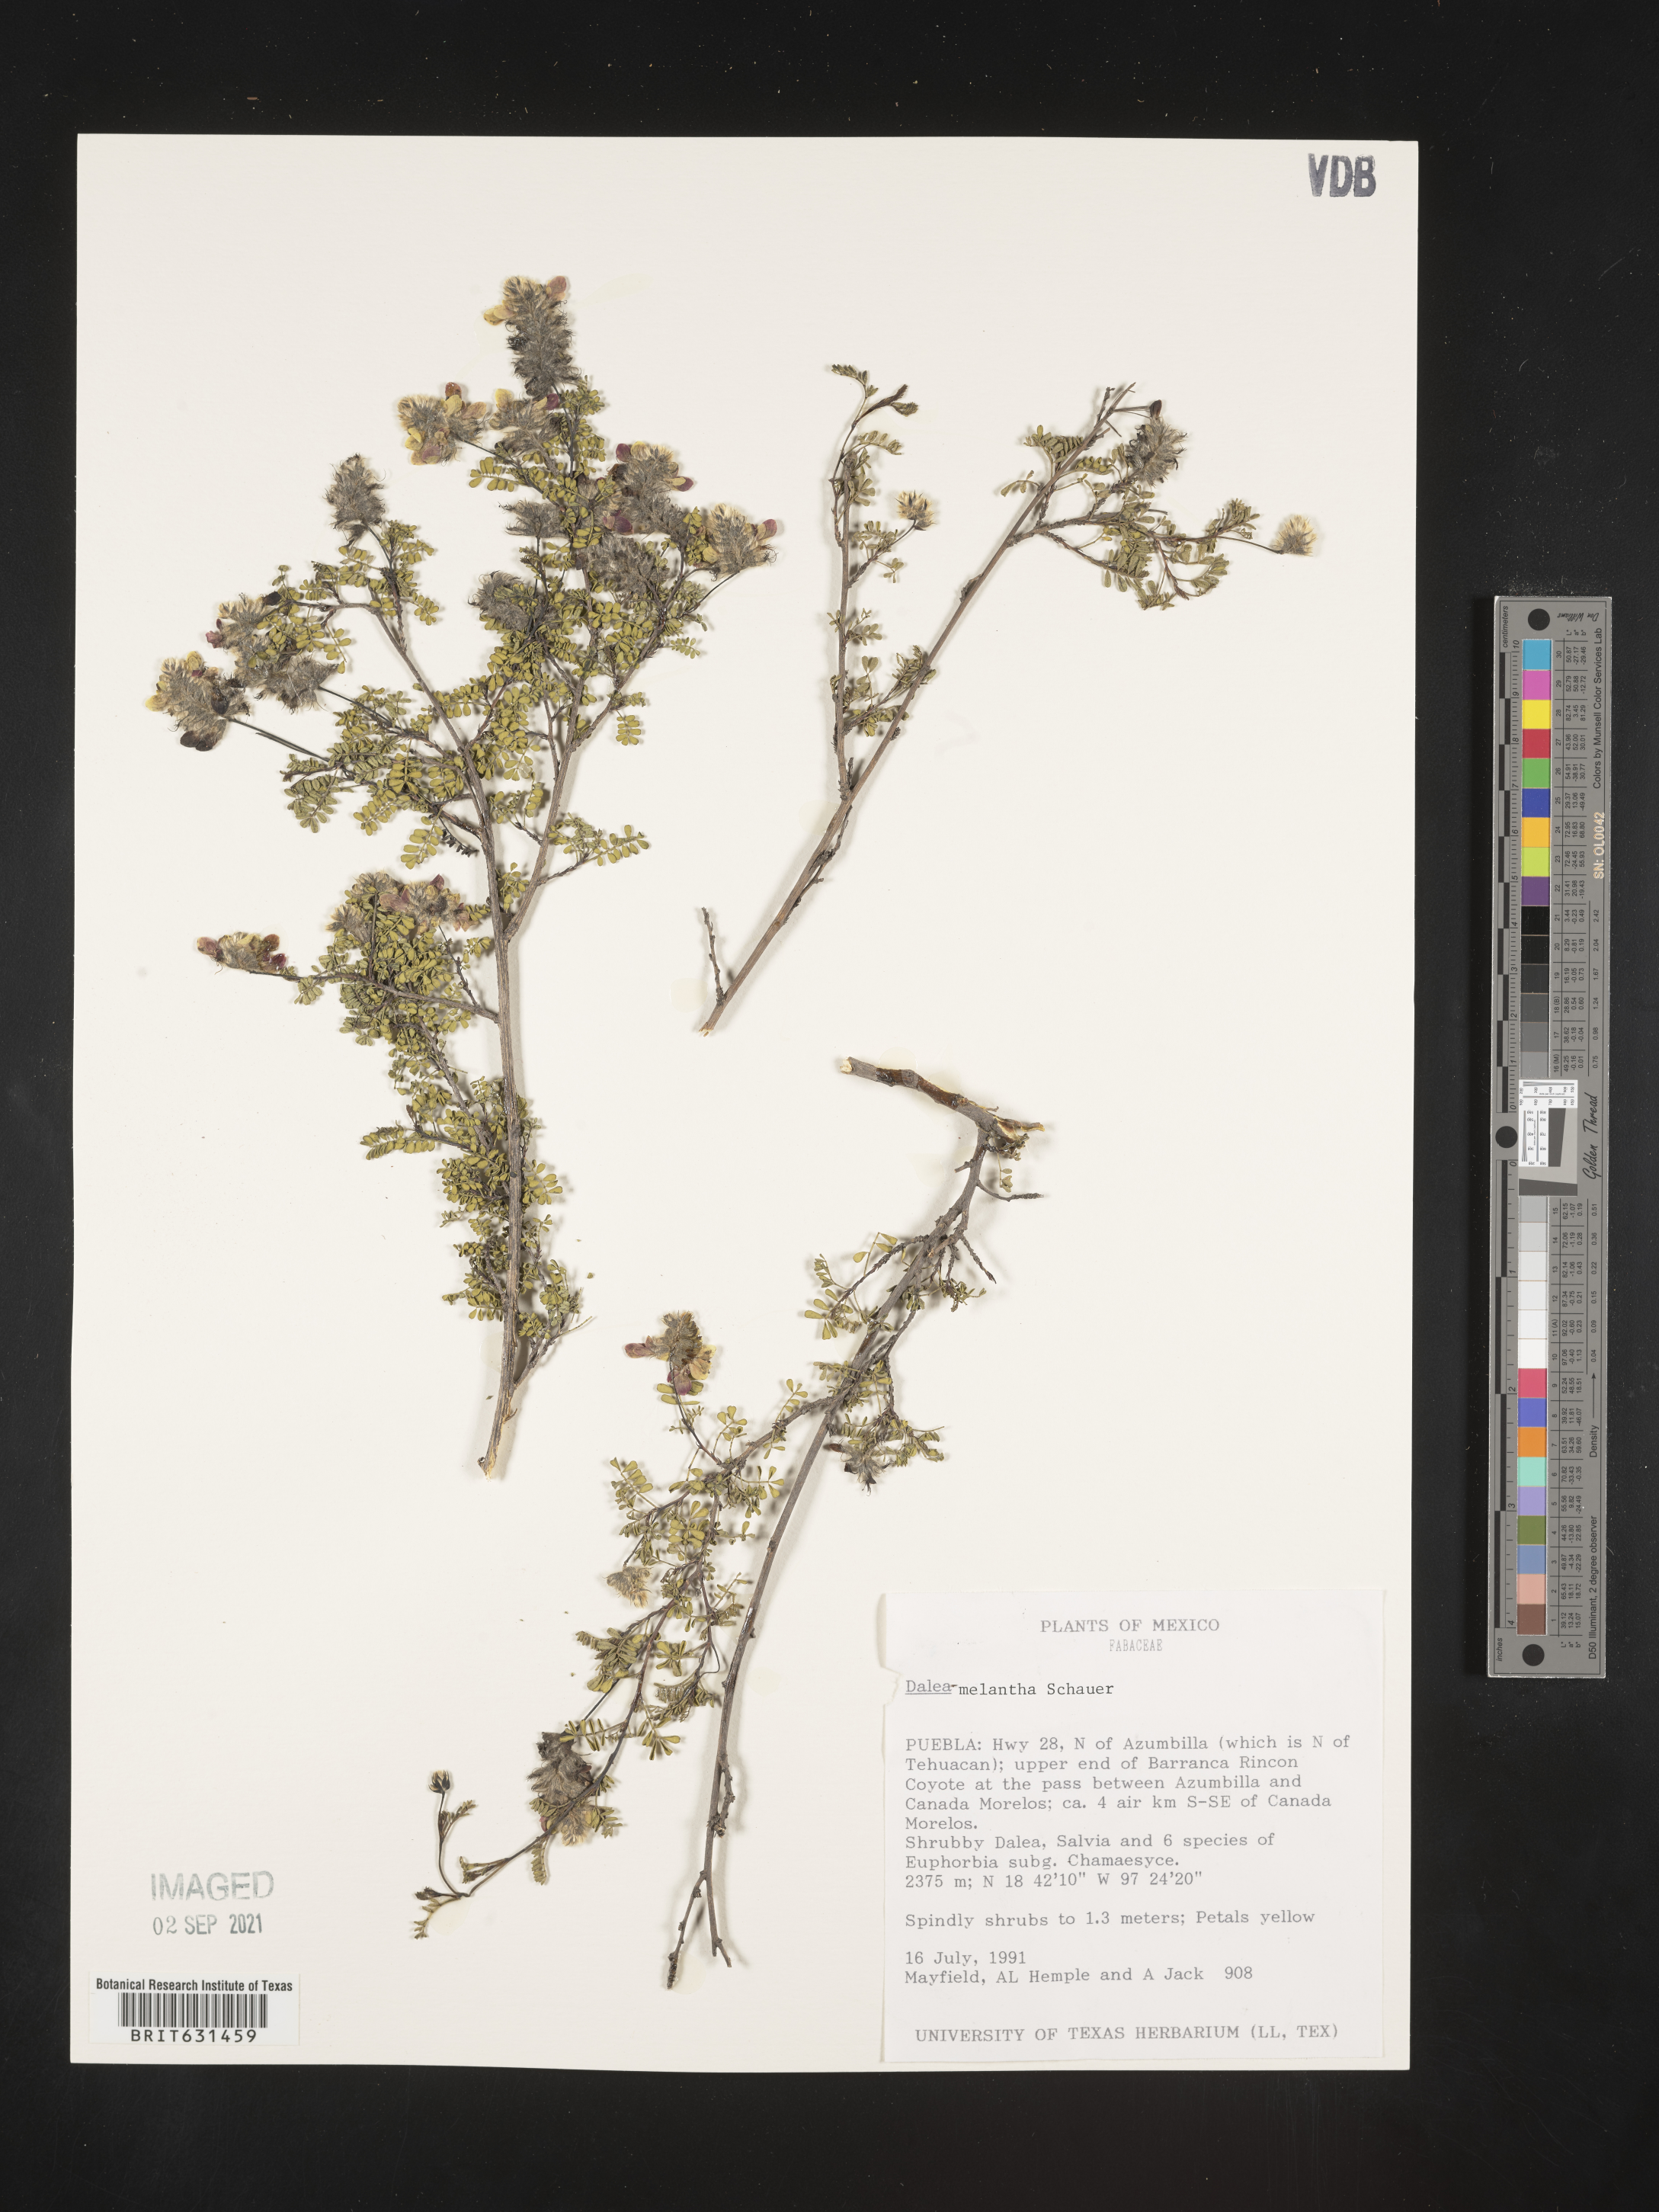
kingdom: Plantae
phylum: Tracheophyta
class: Magnoliopsida
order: Fabales
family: Fabaceae
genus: Dalea
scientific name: Dalea melantha
